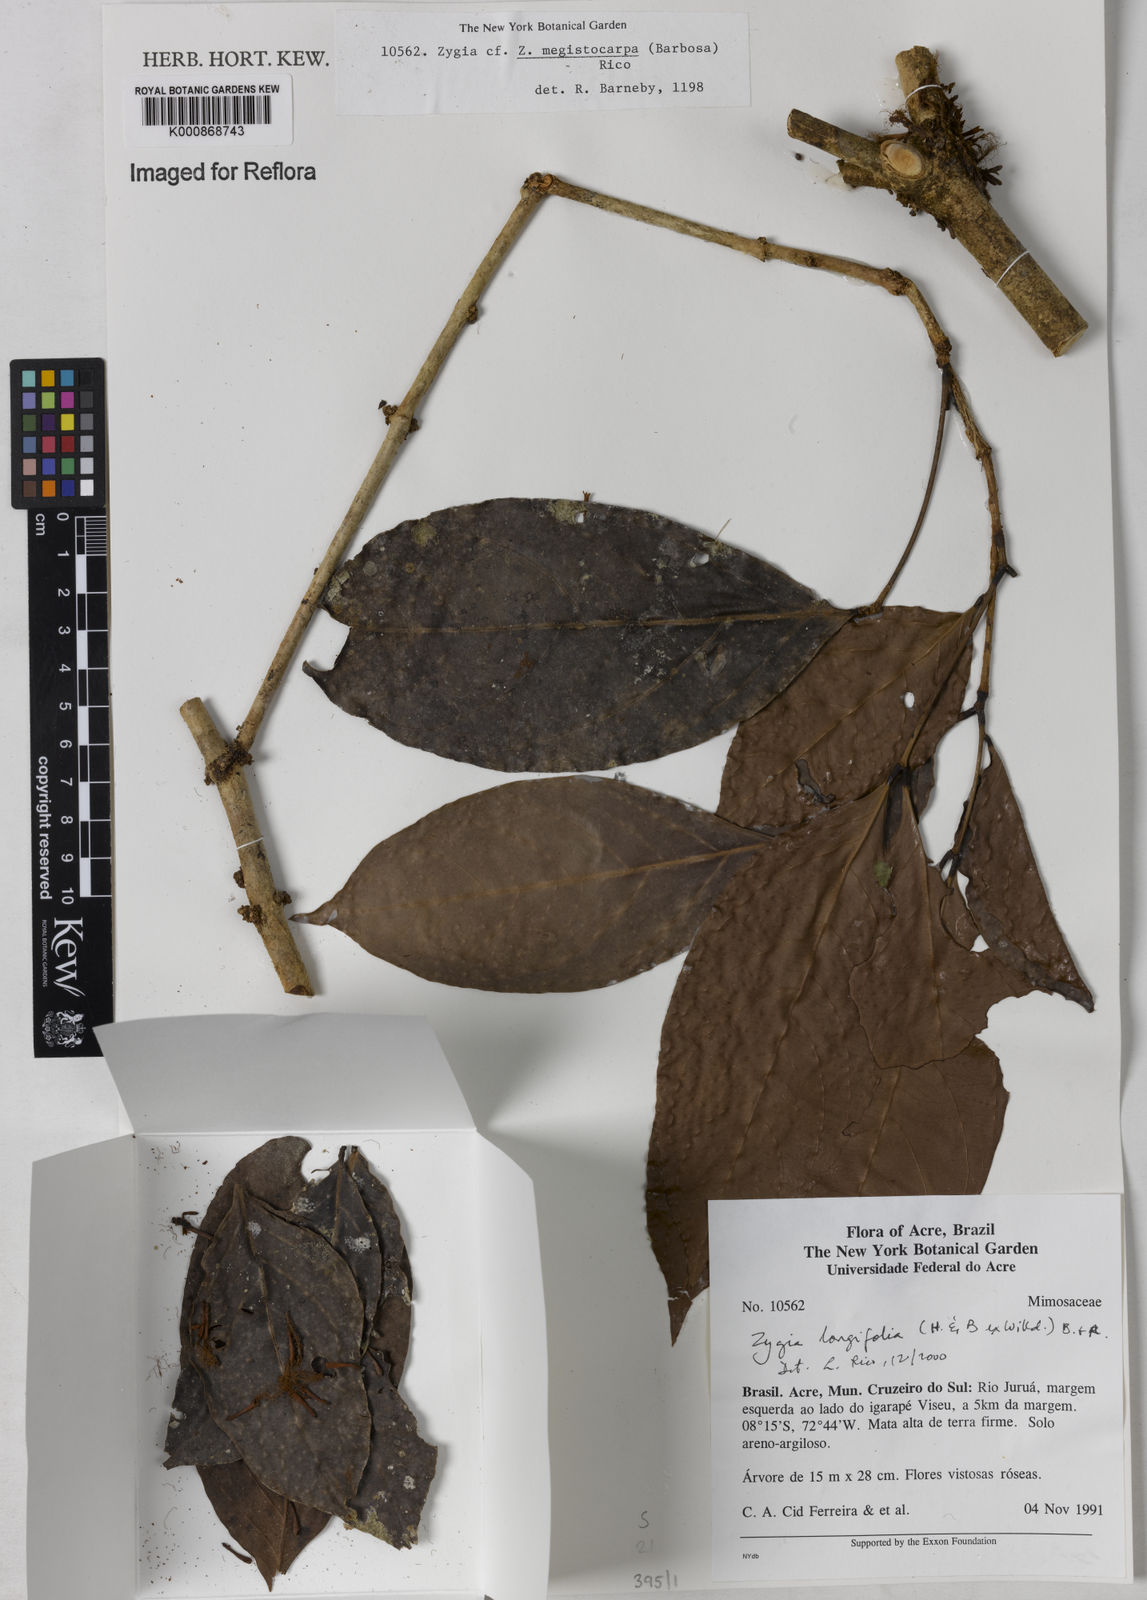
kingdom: Plantae
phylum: Tracheophyta
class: Magnoliopsida
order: Fabales
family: Fabaceae
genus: Zygia
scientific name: Zygia longifolia
